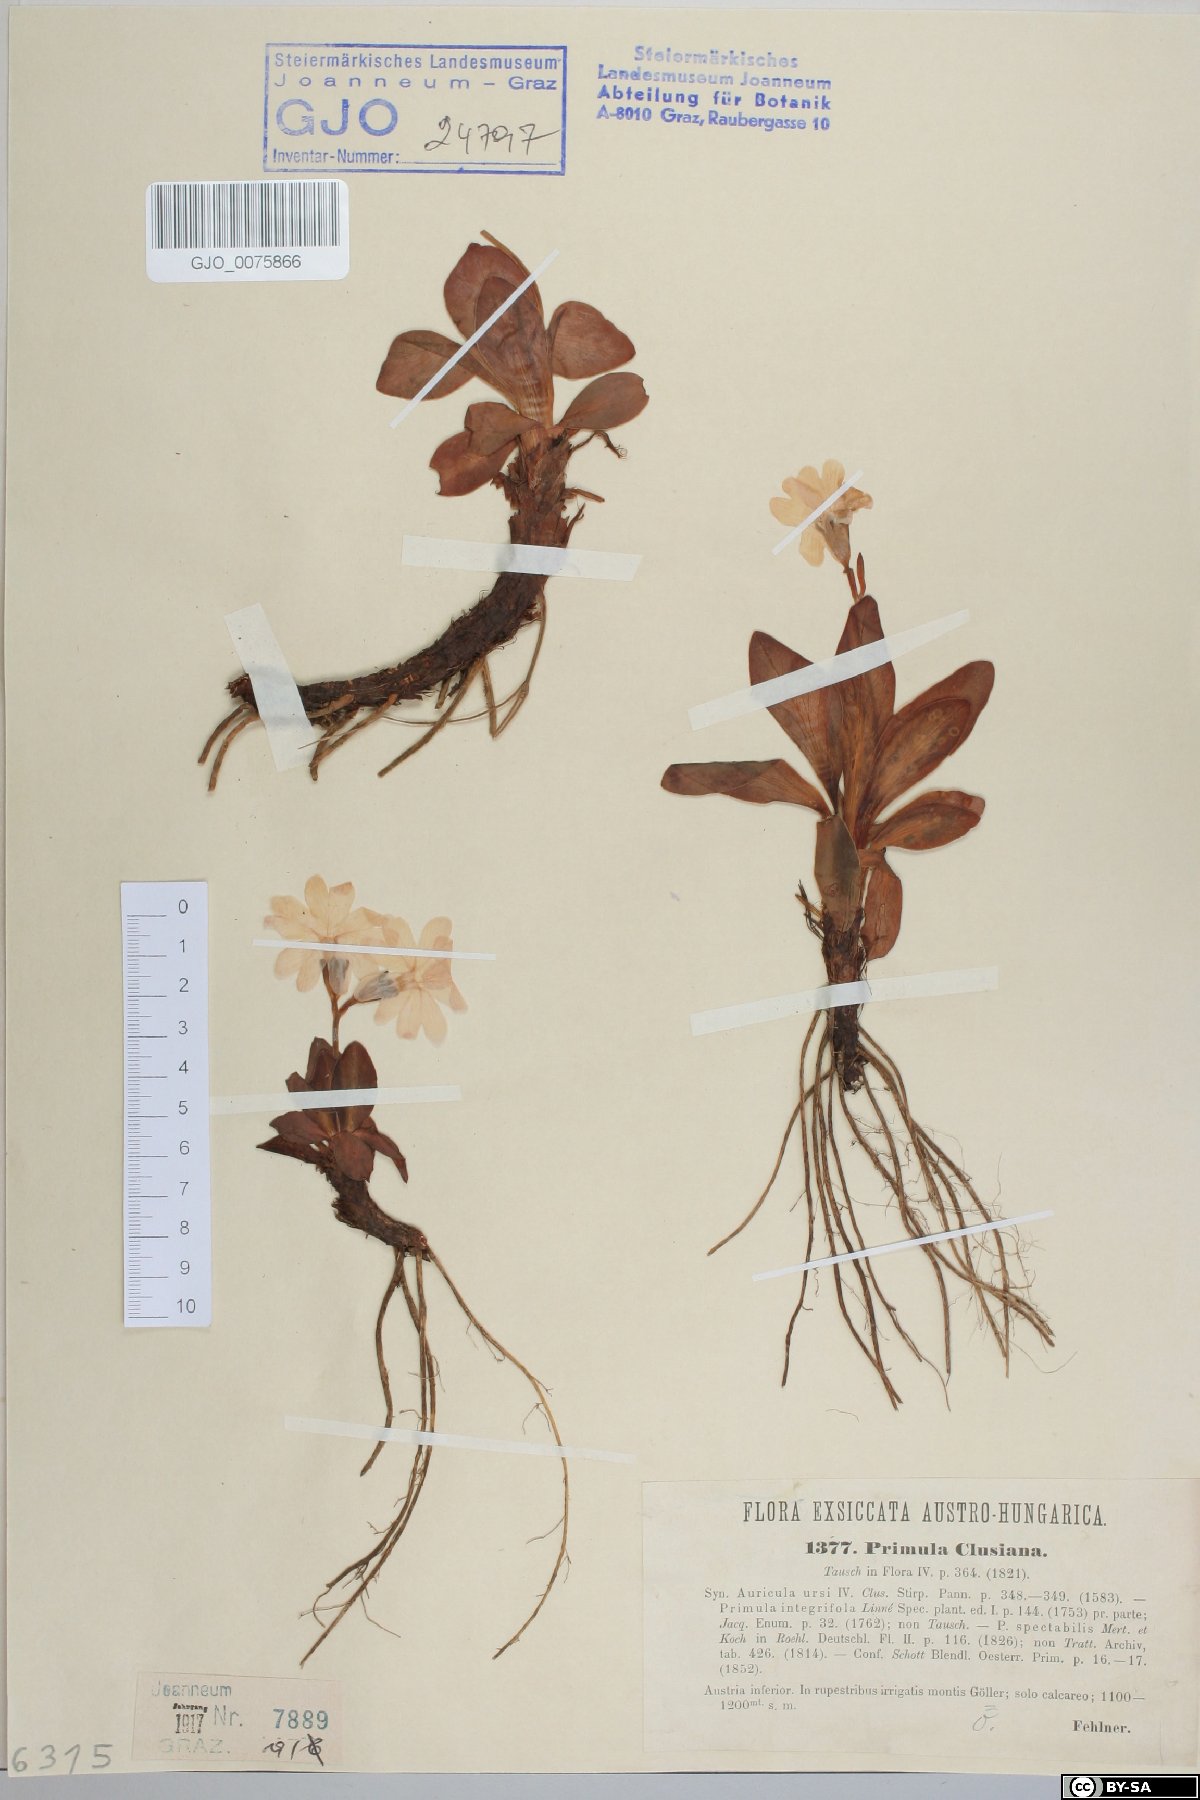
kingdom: Plantae
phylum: Tracheophyta
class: Magnoliopsida
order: Ericales
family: Primulaceae
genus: Primula
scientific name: Primula clusiana
